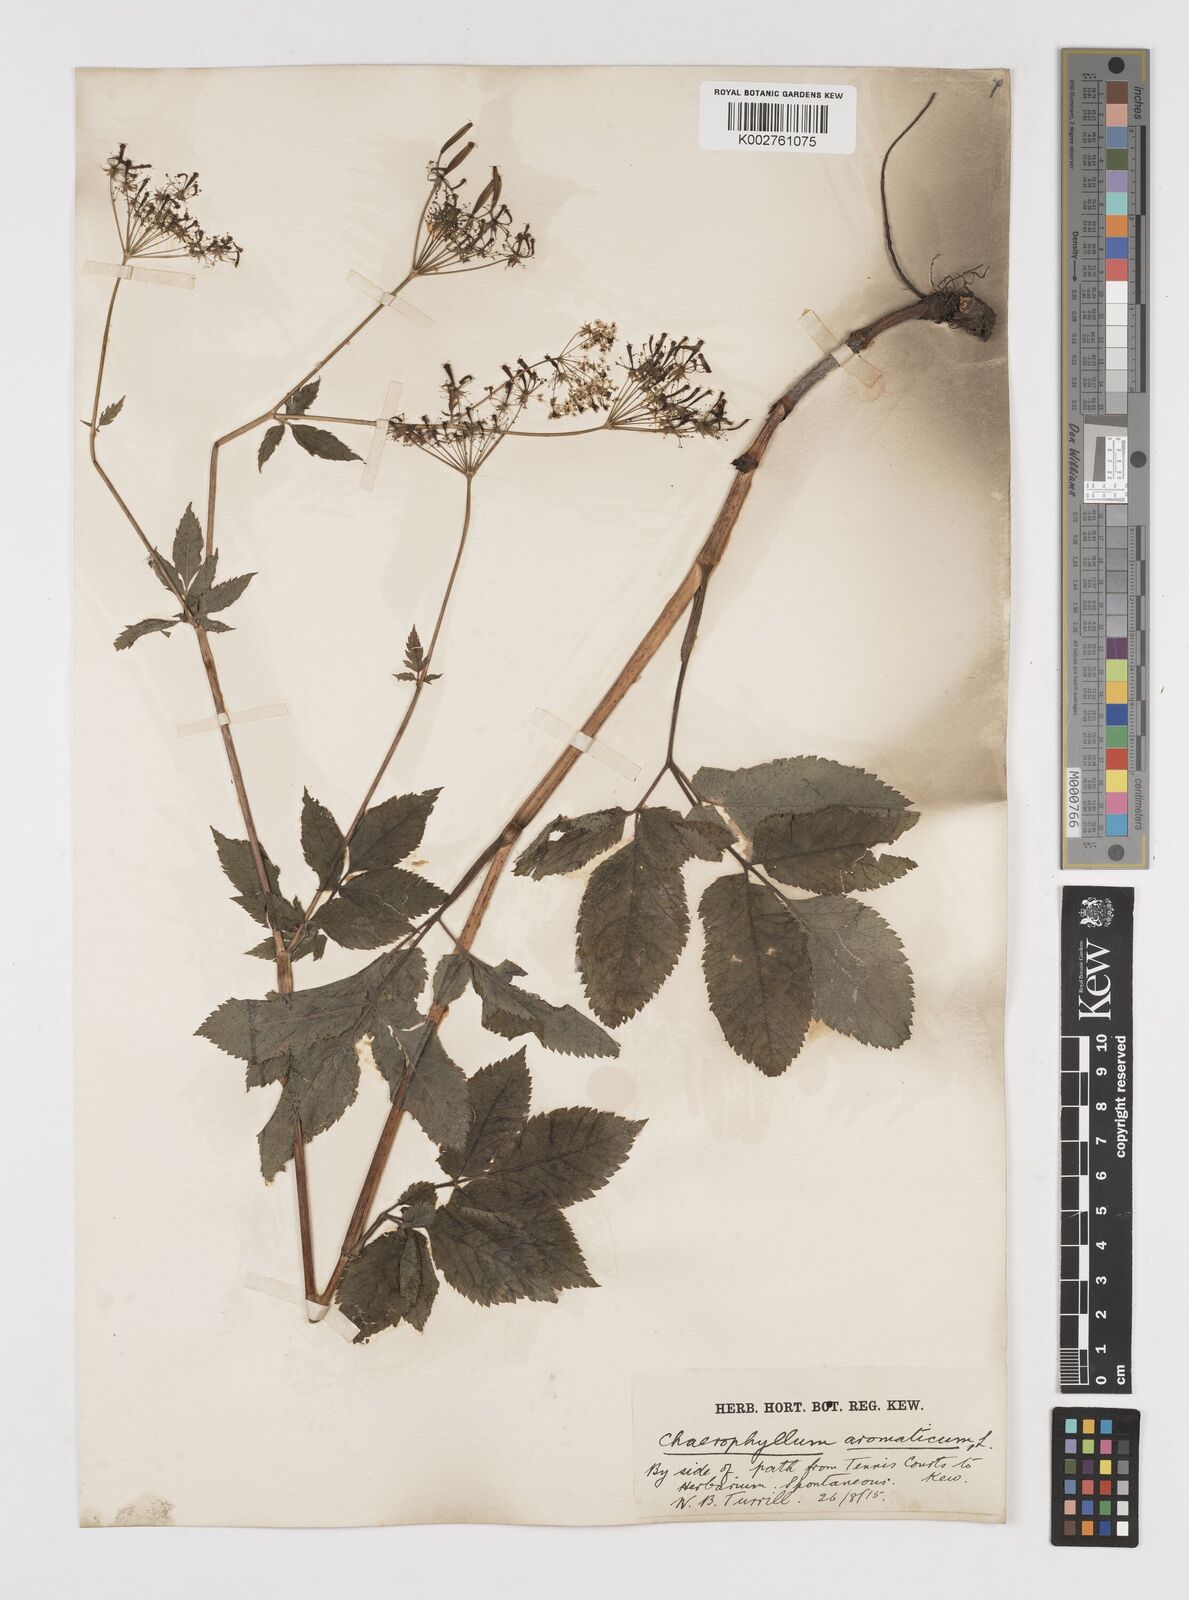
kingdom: Plantae
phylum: Tracheophyta
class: Magnoliopsida
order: Apiales
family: Apiaceae
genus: Chaerophyllum
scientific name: Chaerophyllum aromaticum
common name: Broadleaf chervil
